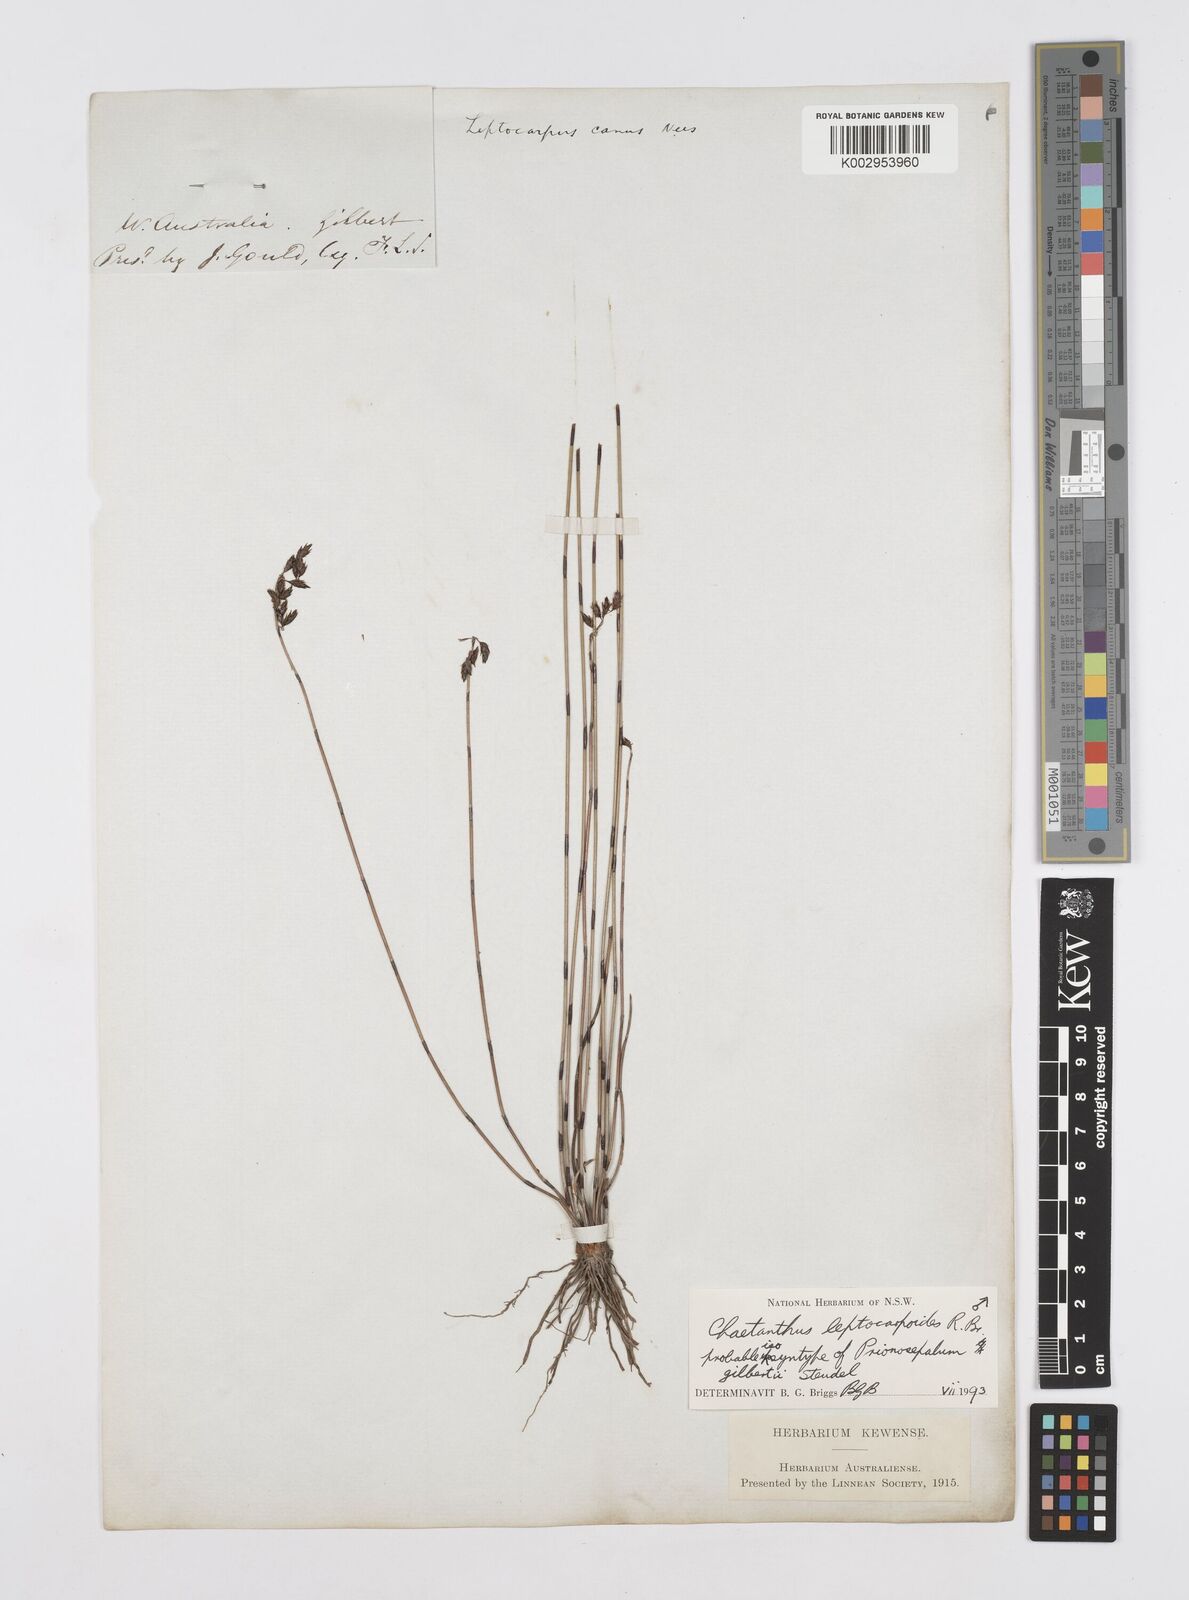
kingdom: Plantae
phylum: Tracheophyta
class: Liliopsida
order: Poales
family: Restionaceae
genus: Chaetanthus
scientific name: Chaetanthus leptocarpoides
